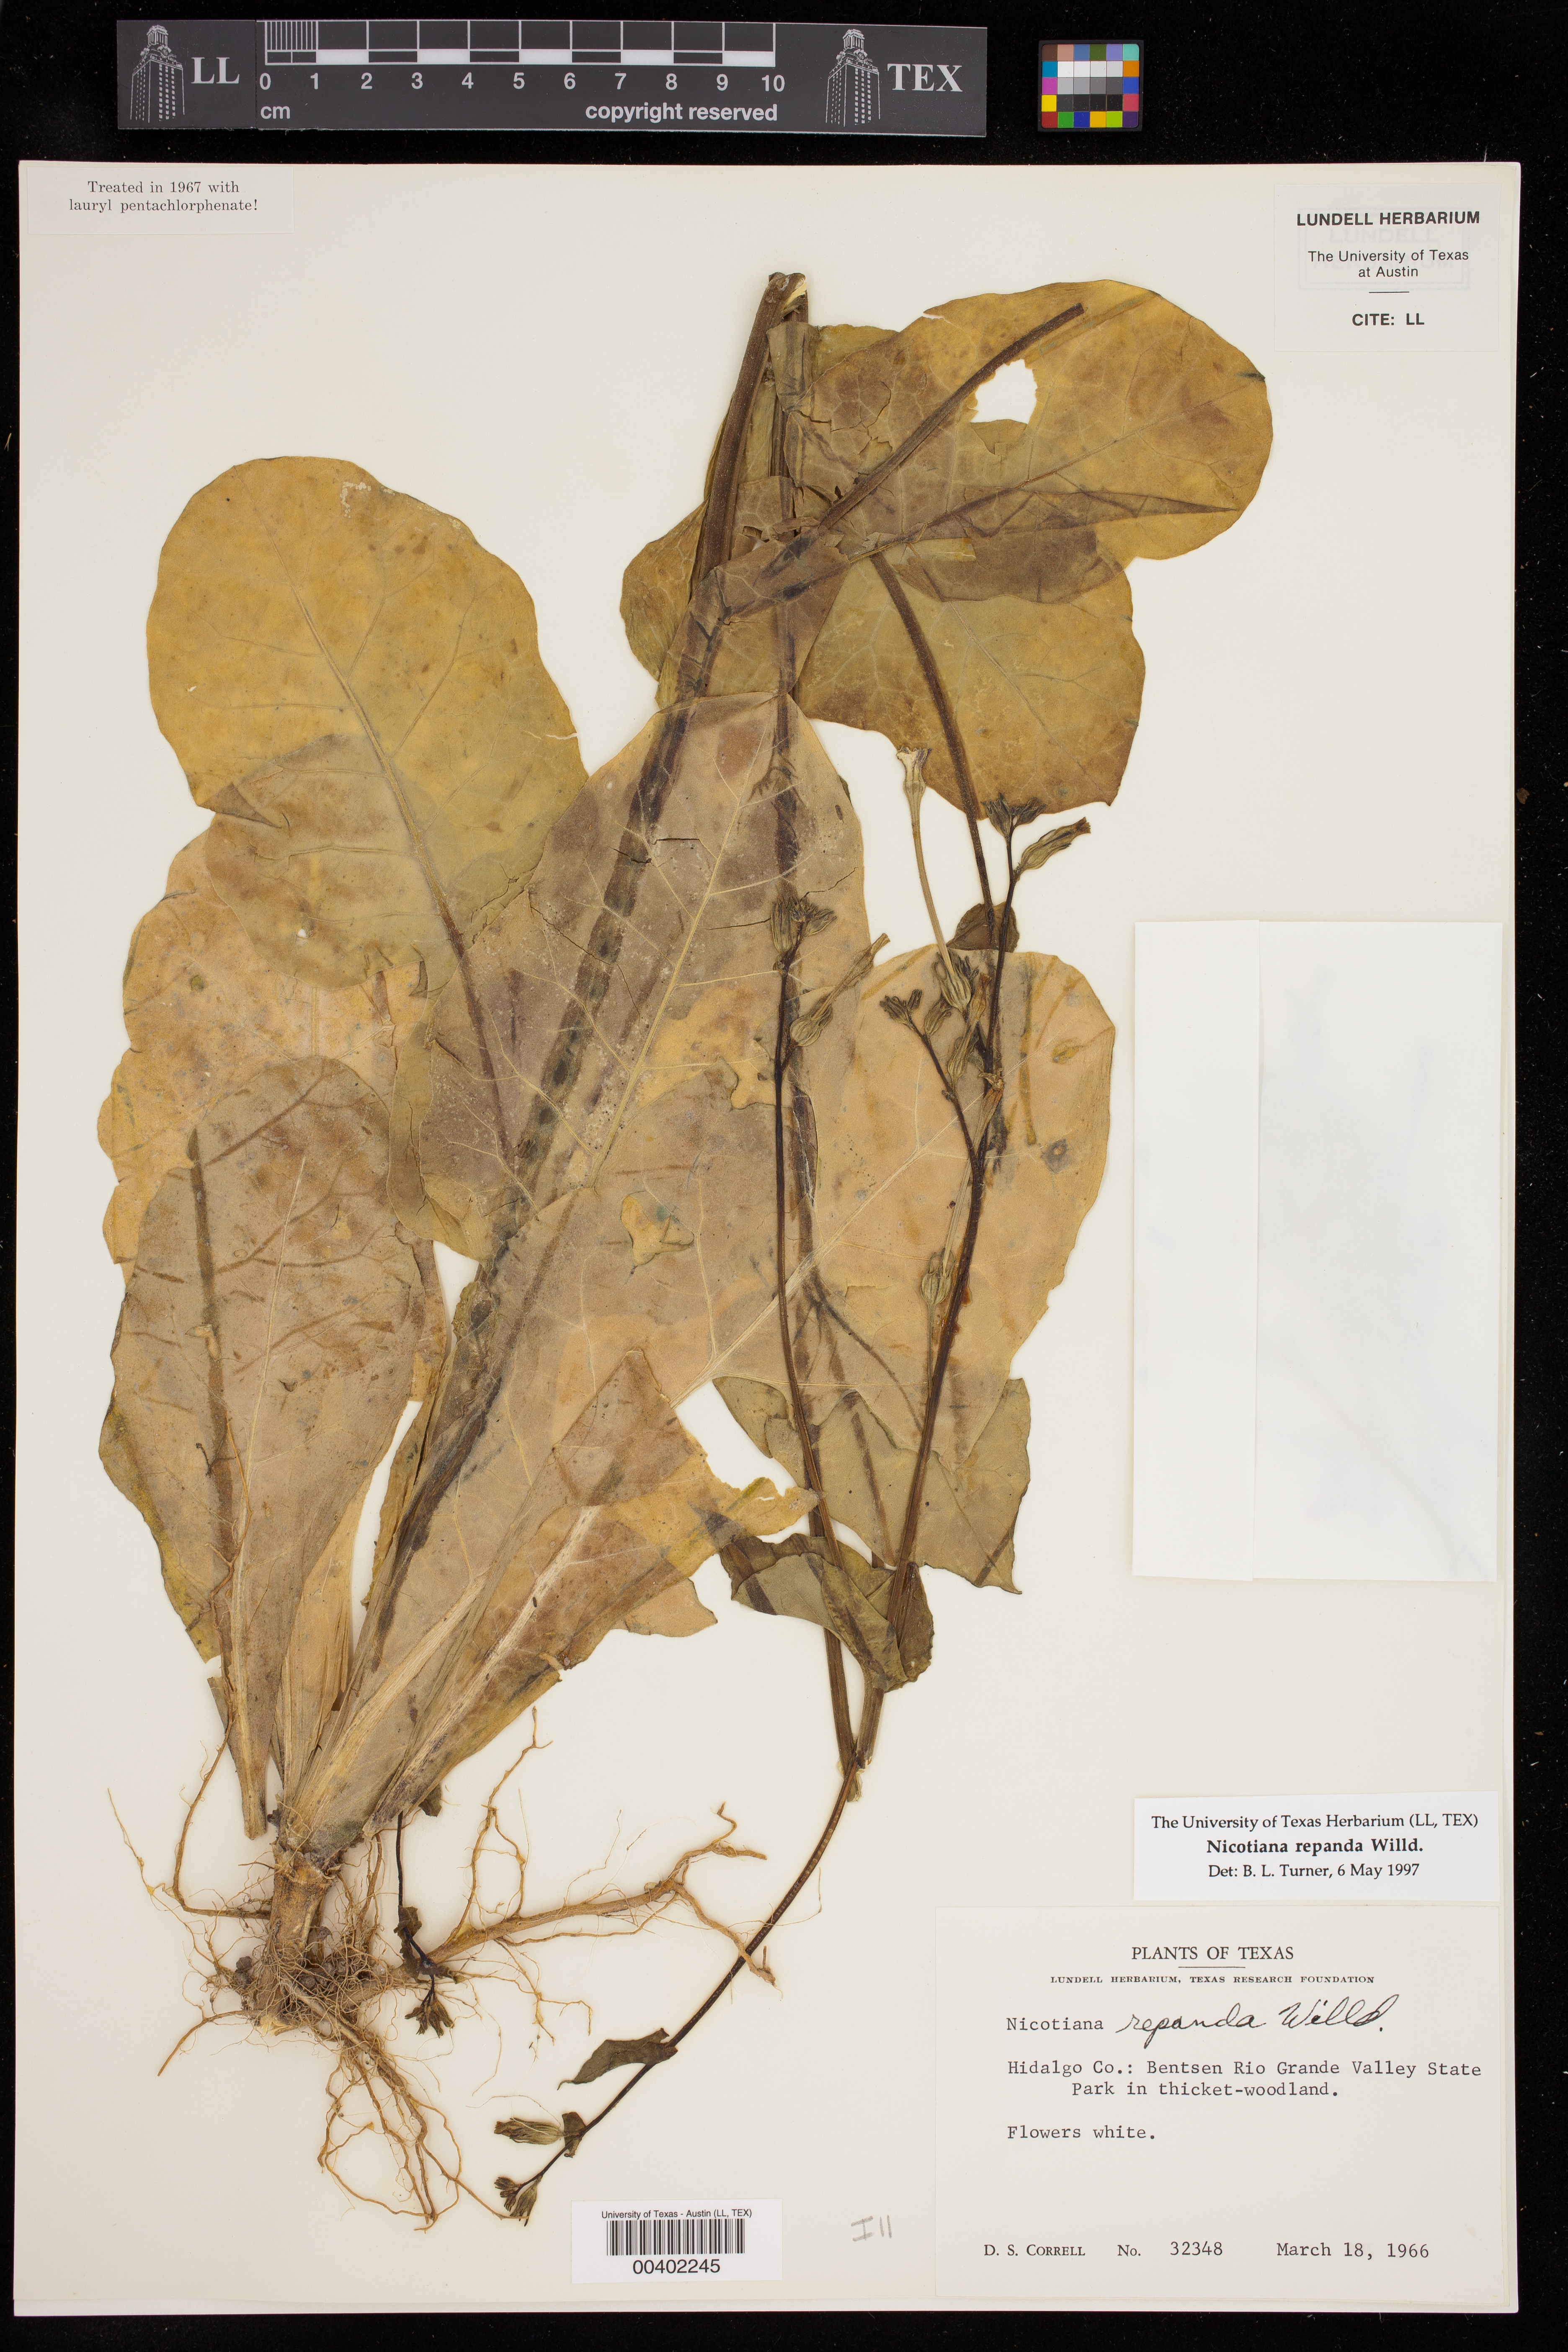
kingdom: Plantae
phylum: Tracheophyta
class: Magnoliopsida
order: Solanales
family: Solanaceae
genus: Nicotiana
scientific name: Nicotiana repanda
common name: Fiddle-leaf tobacco
